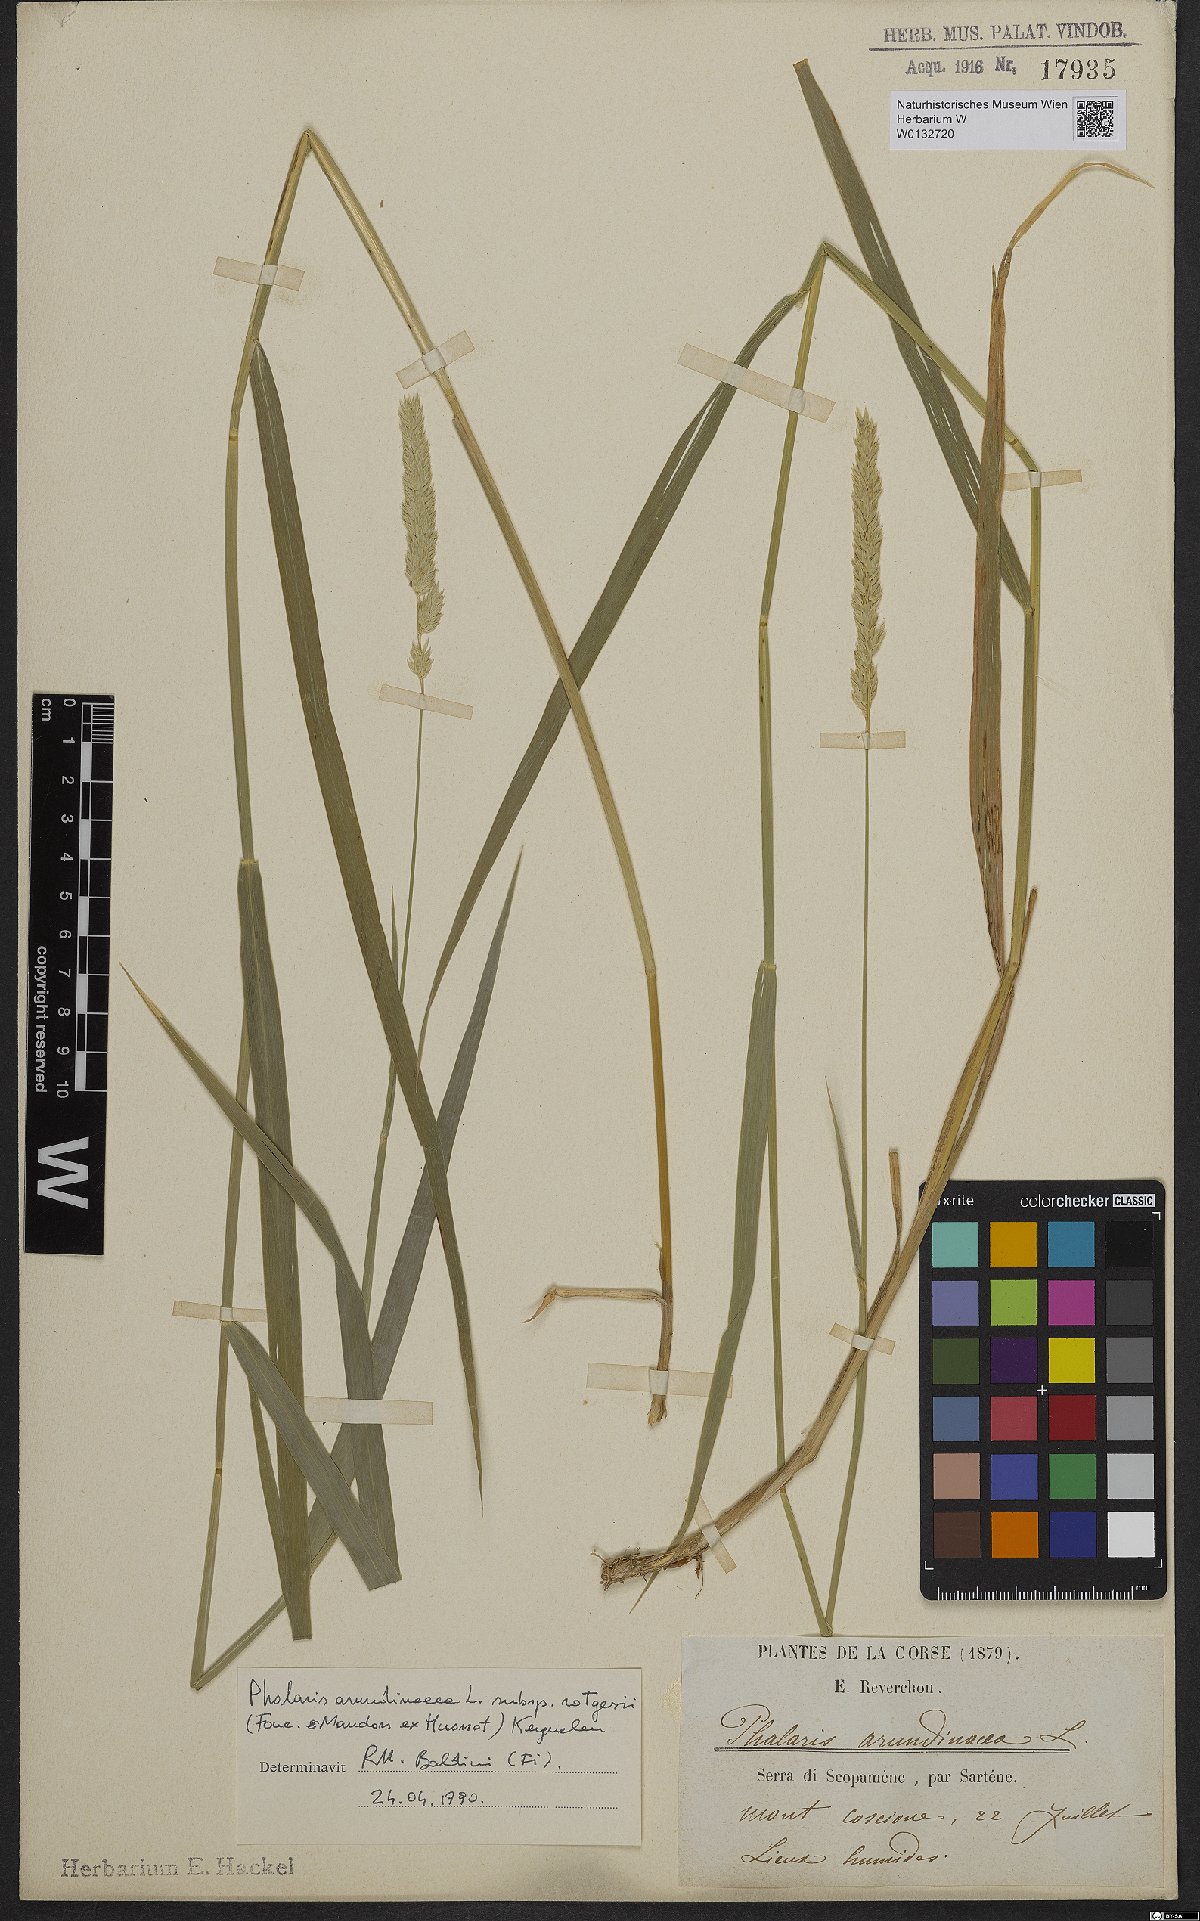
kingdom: Plantae
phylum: Tracheophyta
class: Liliopsida
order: Poales
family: Poaceae
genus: Phalaris
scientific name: Phalaris arundinacea
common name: Reed canary-grass
